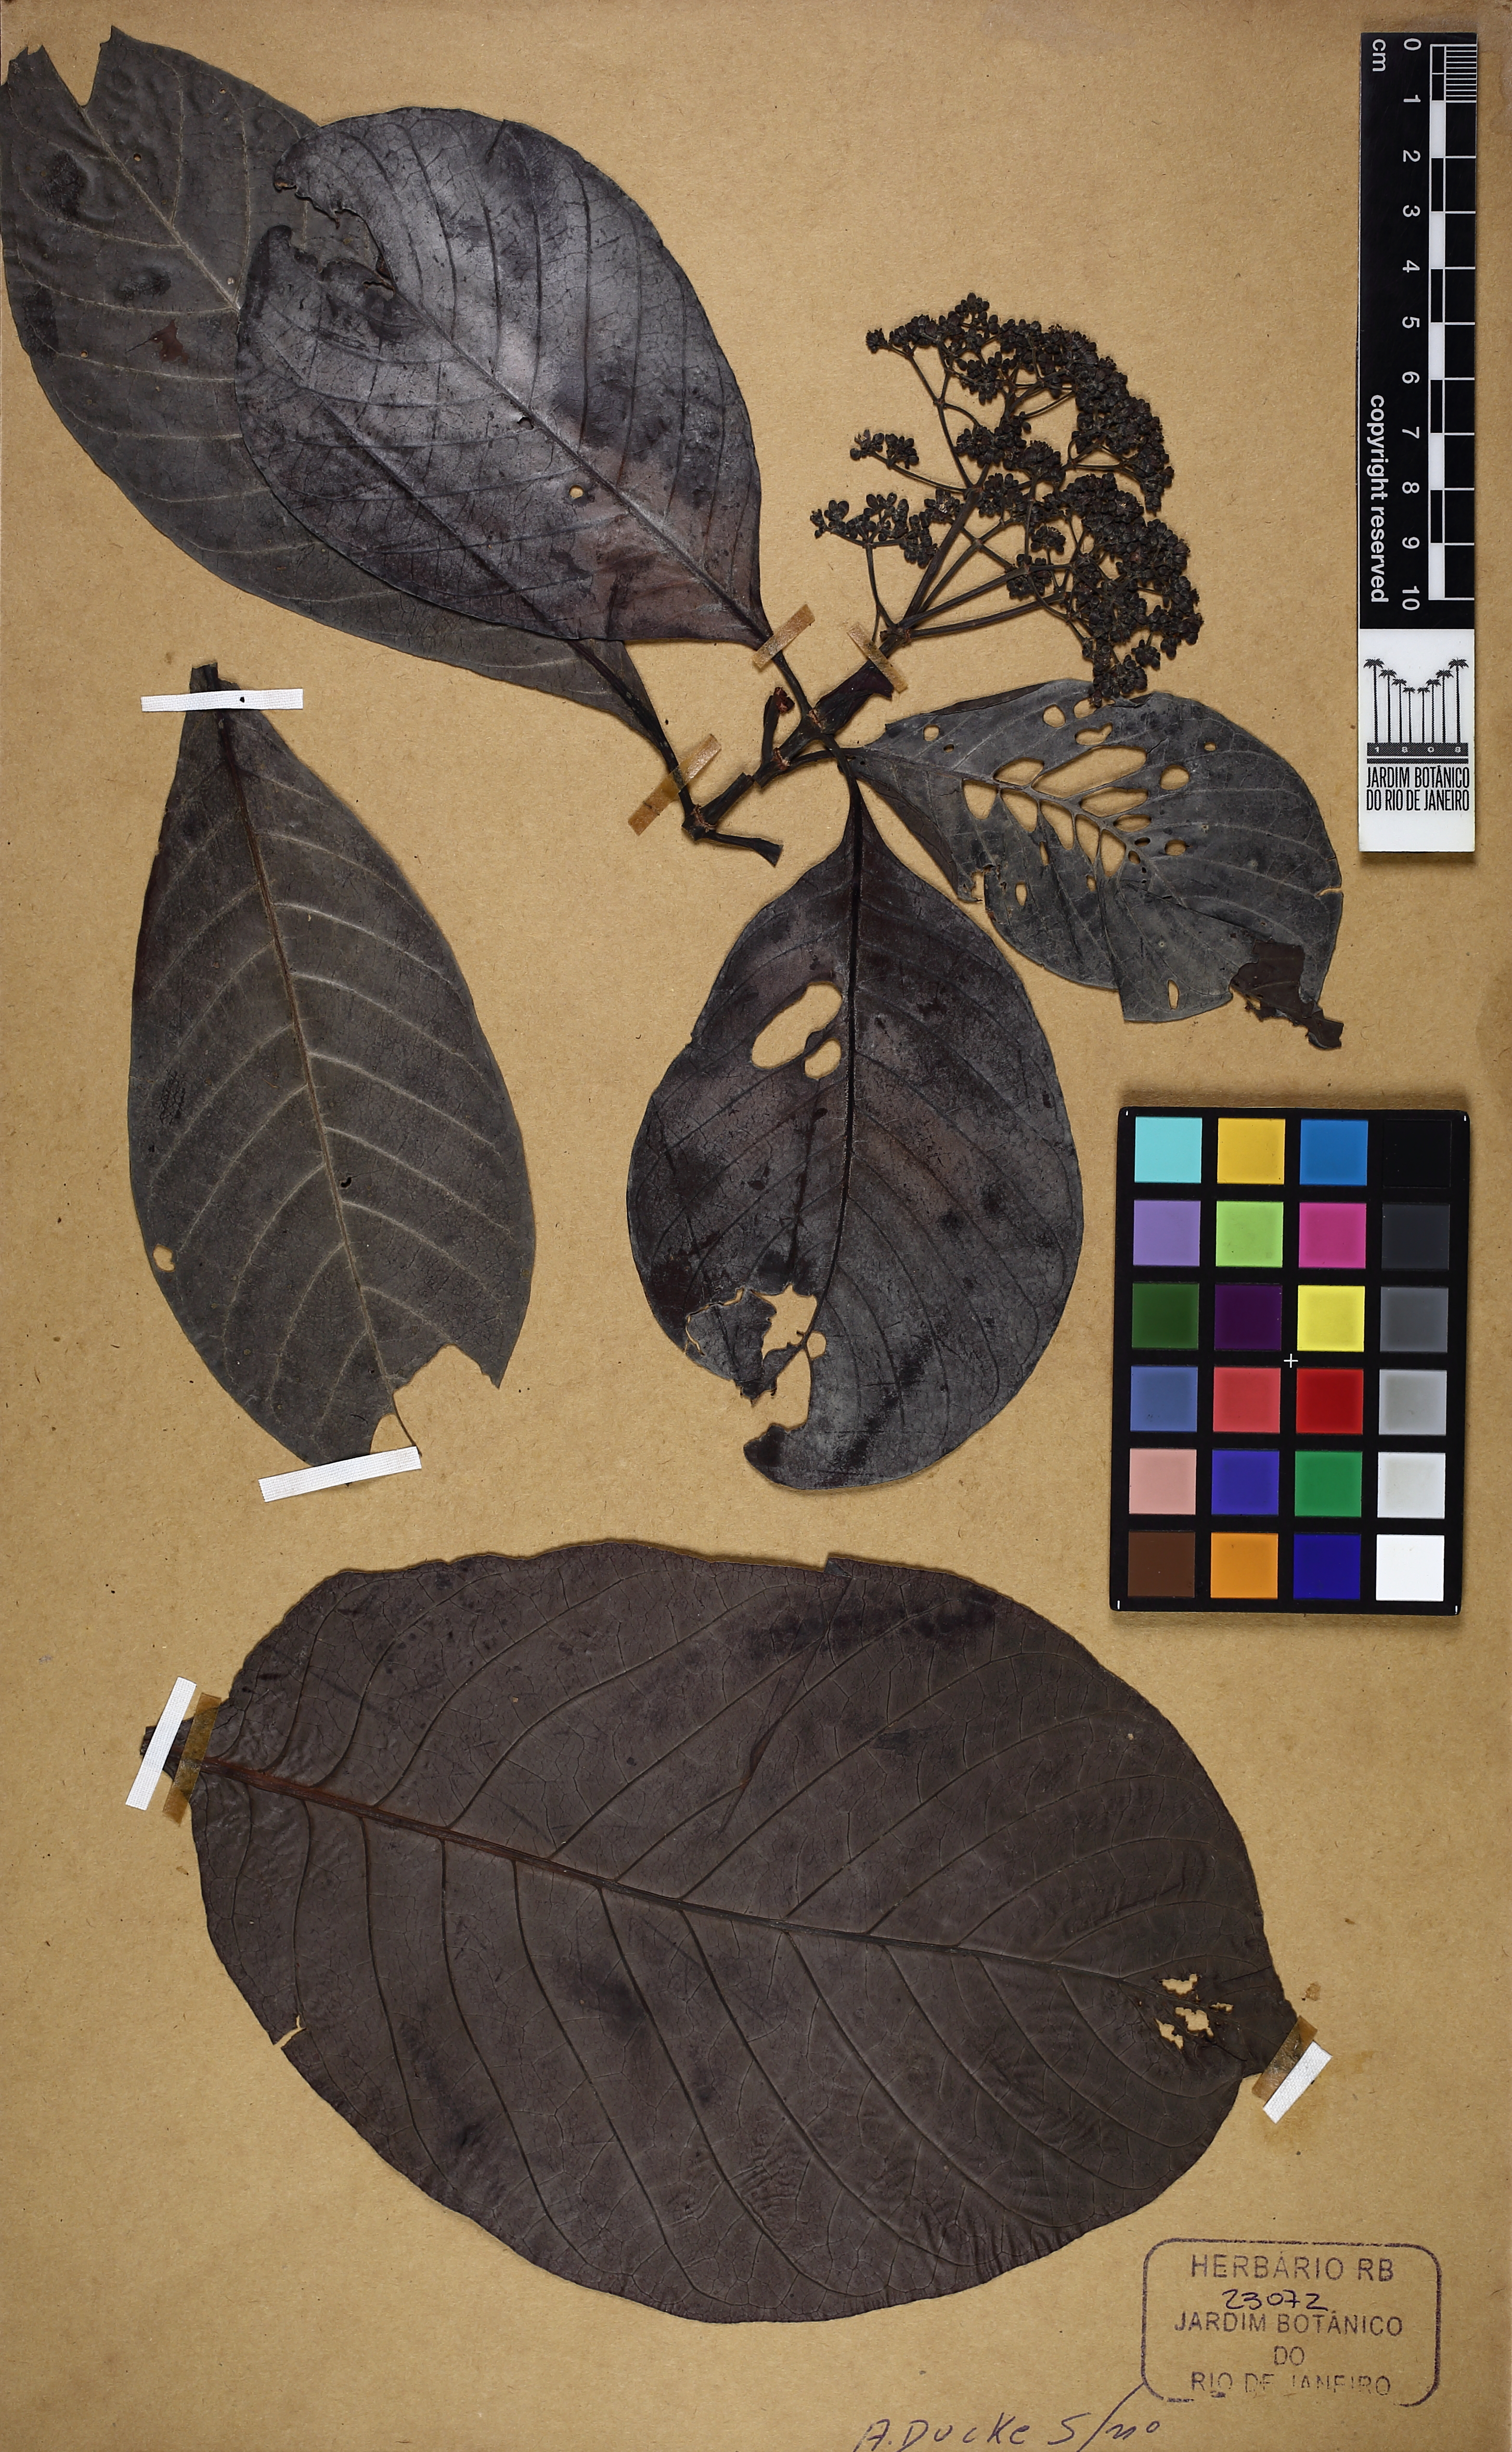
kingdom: Plantae
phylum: Tracheophyta
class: Magnoliopsida
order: Gentianales
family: Rubiaceae
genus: Palicourea
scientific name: Palicourea guianensis
